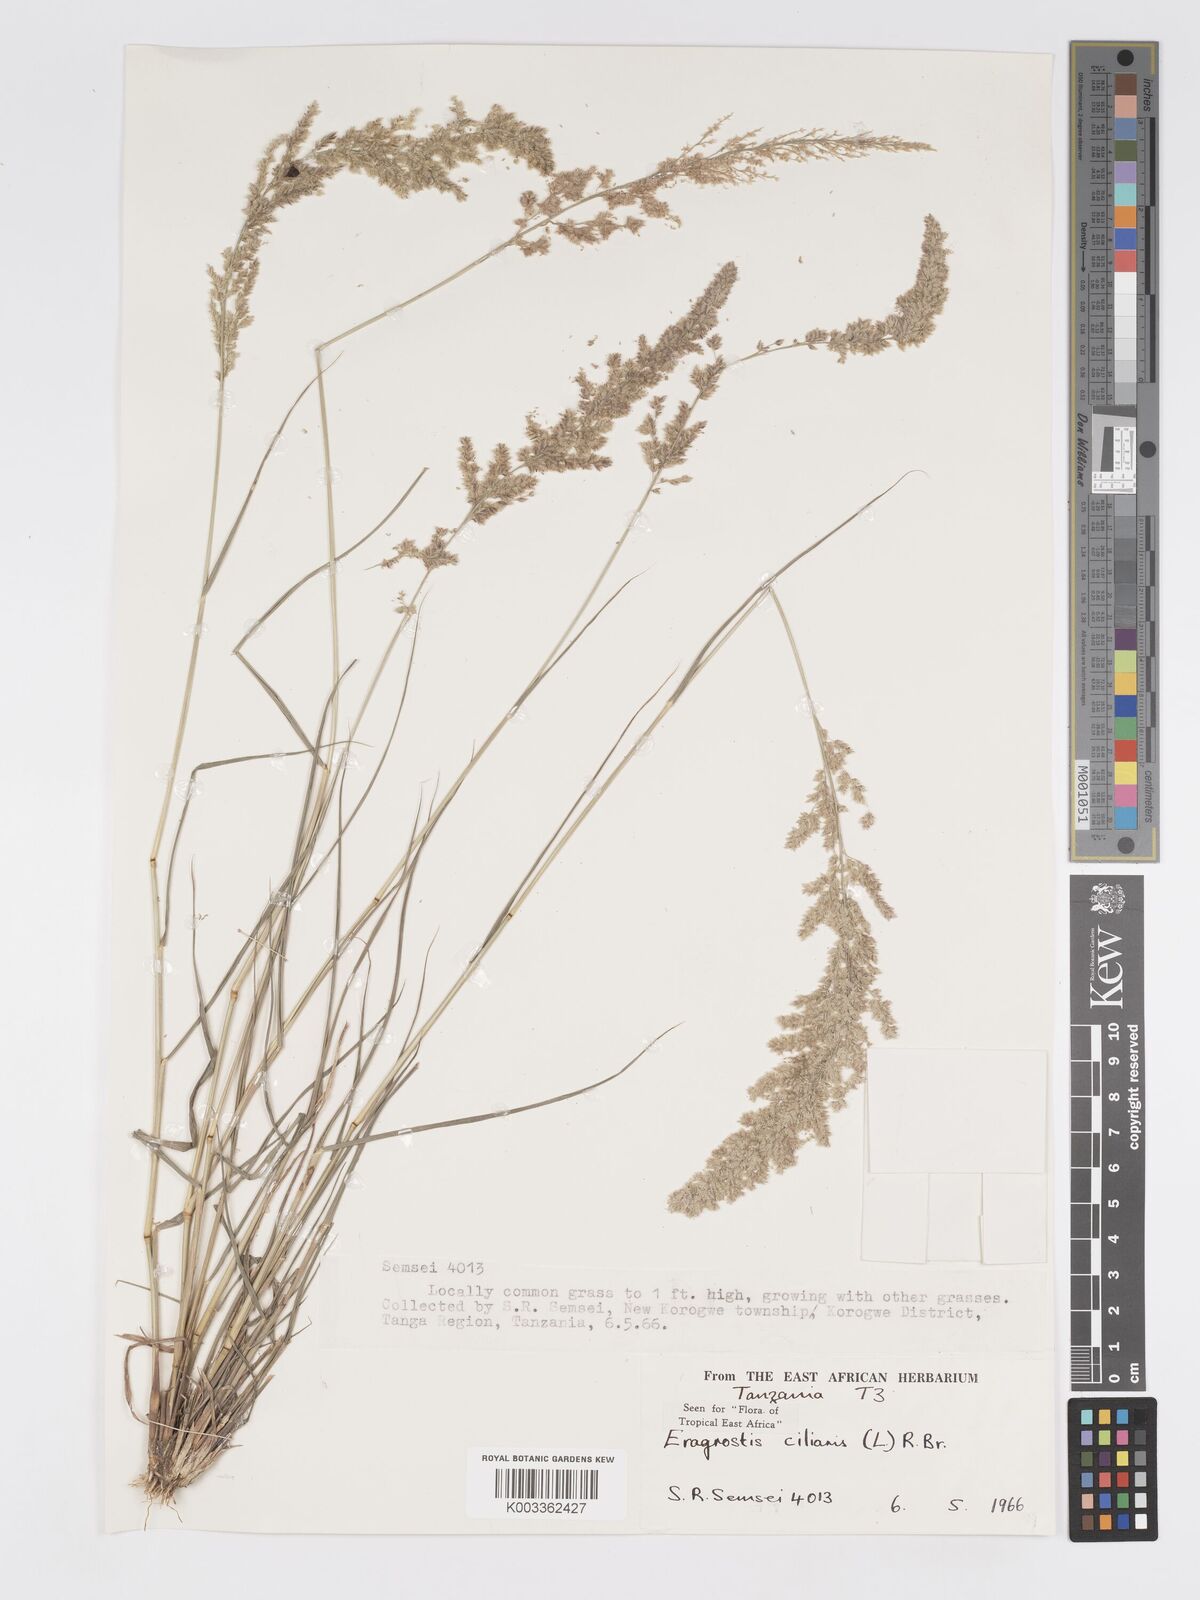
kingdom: Plantae
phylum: Tracheophyta
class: Liliopsida
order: Poales
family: Poaceae
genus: Eragrostis
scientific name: Eragrostis ciliaris
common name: Gophertail lovegrass
